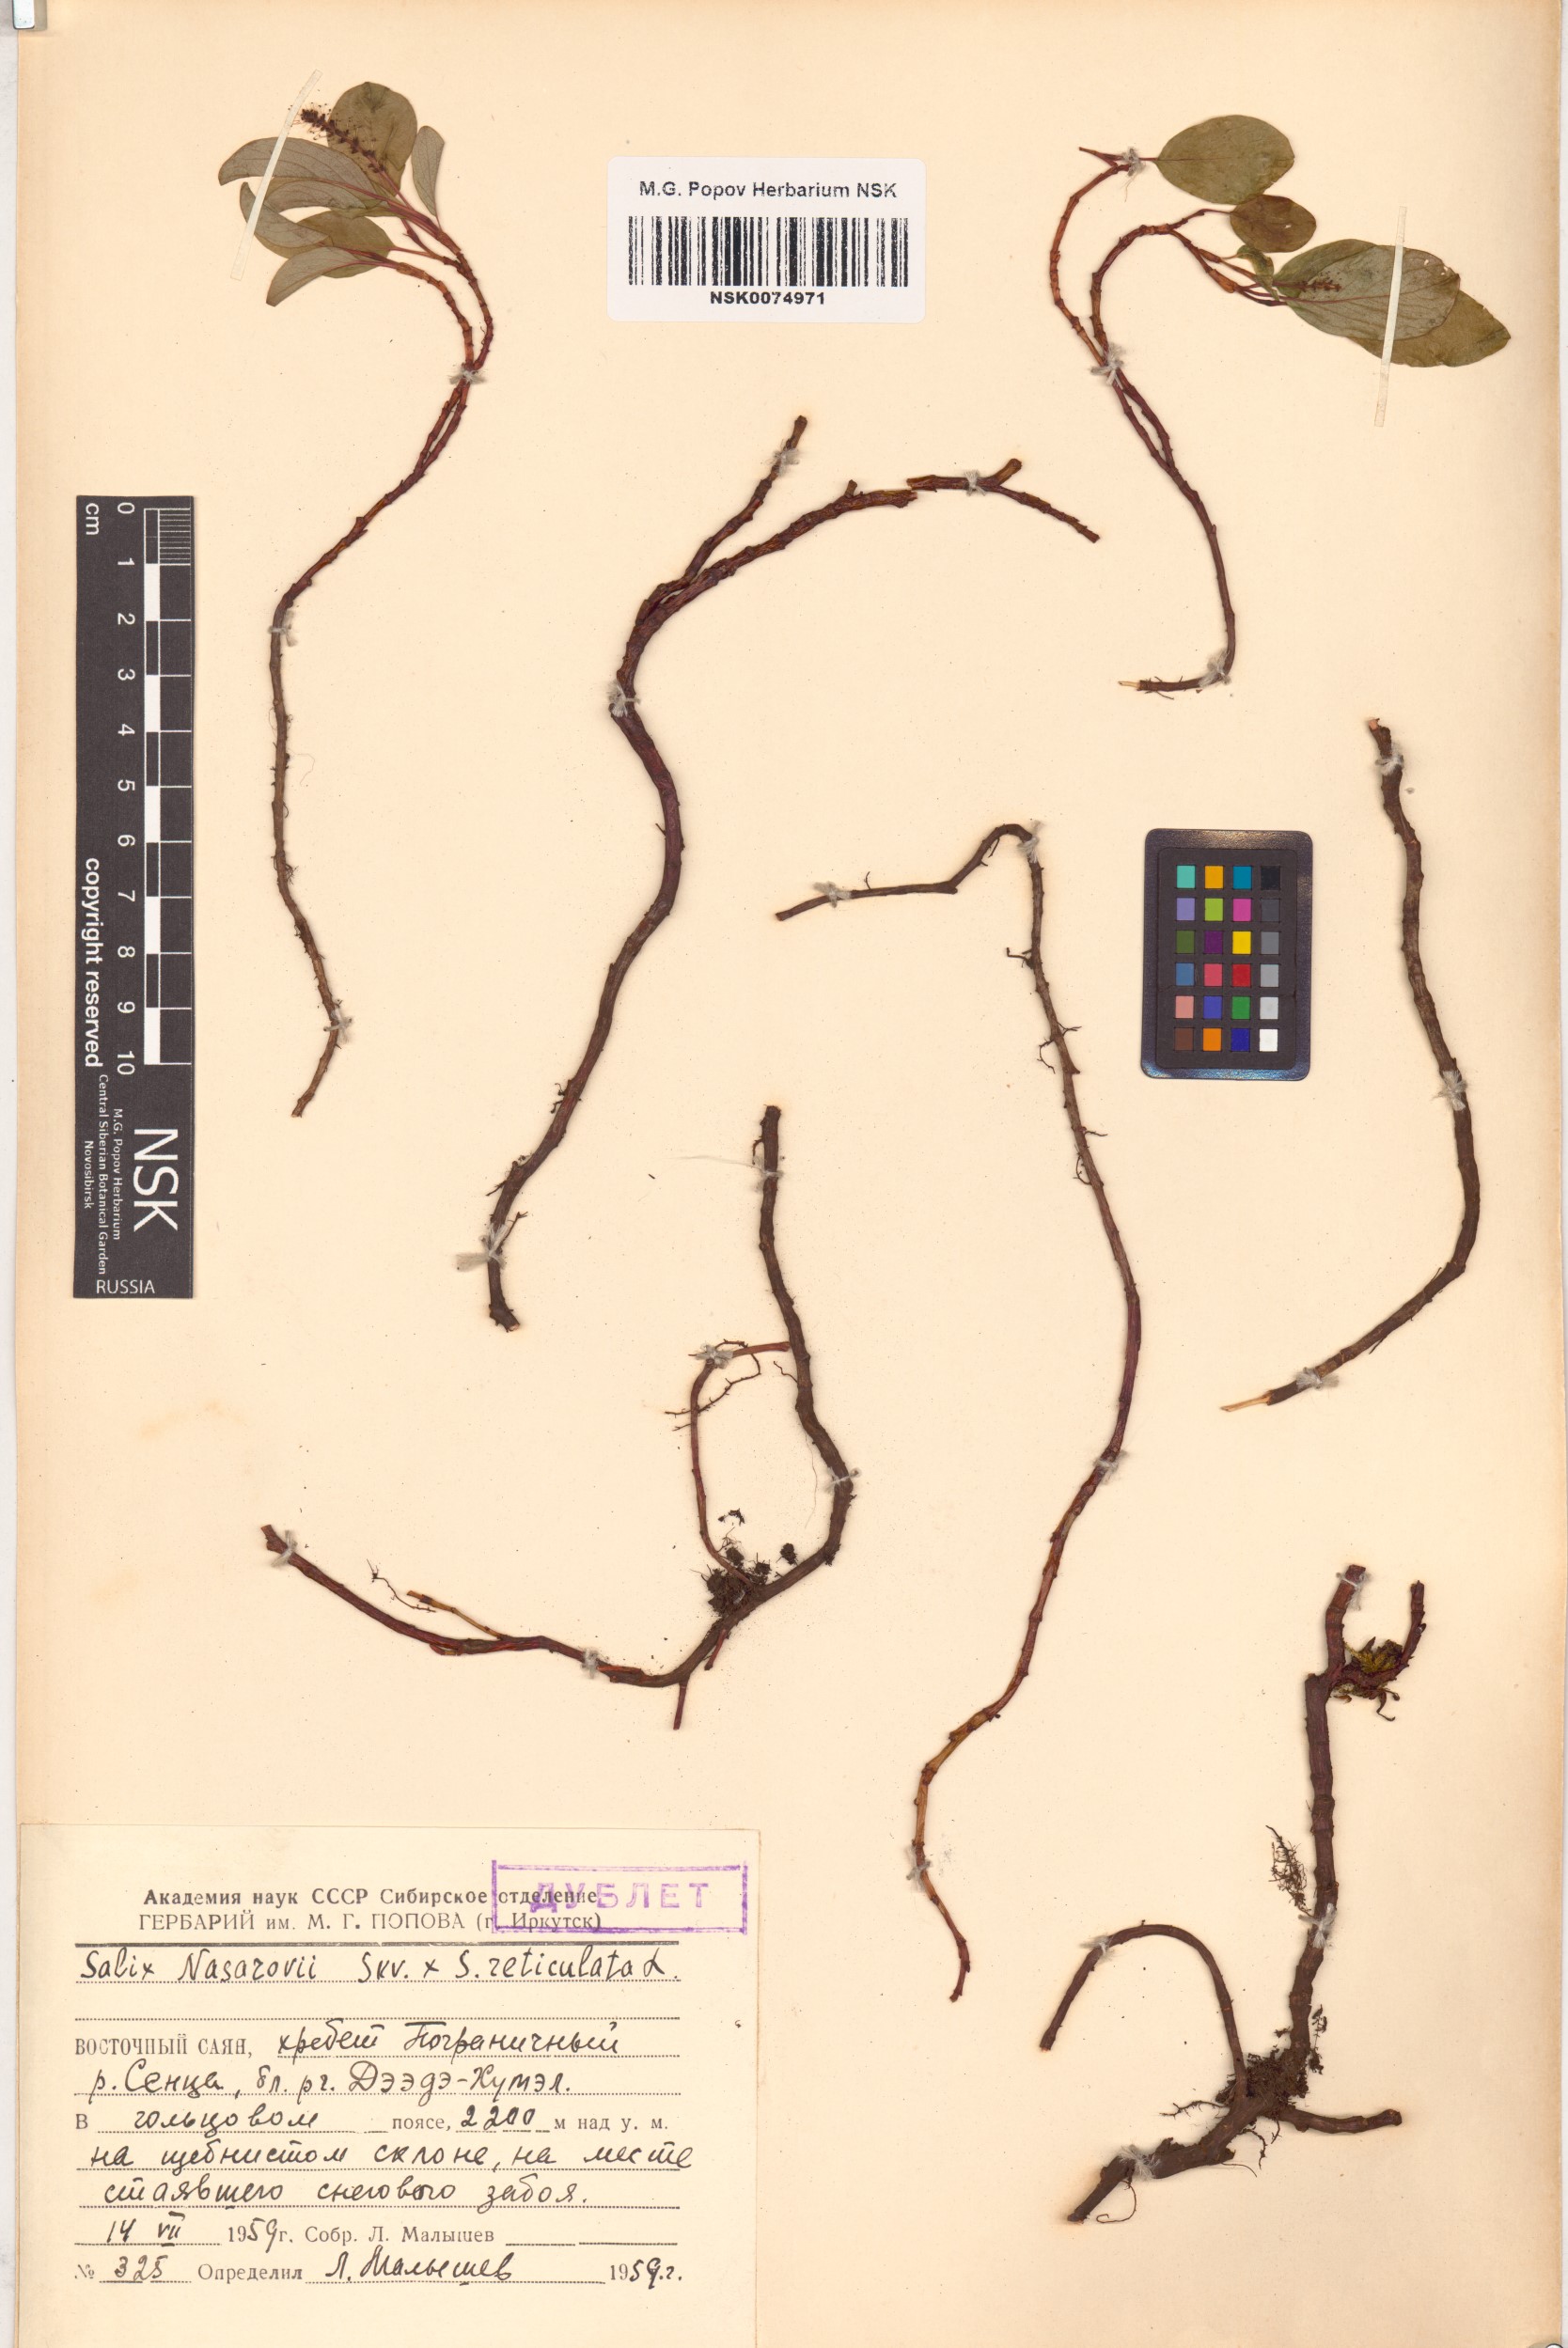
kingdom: Plantae
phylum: Tracheophyta
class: Magnoliopsida
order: Malpighiales
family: Salicaceae
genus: Salix
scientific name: Salix
